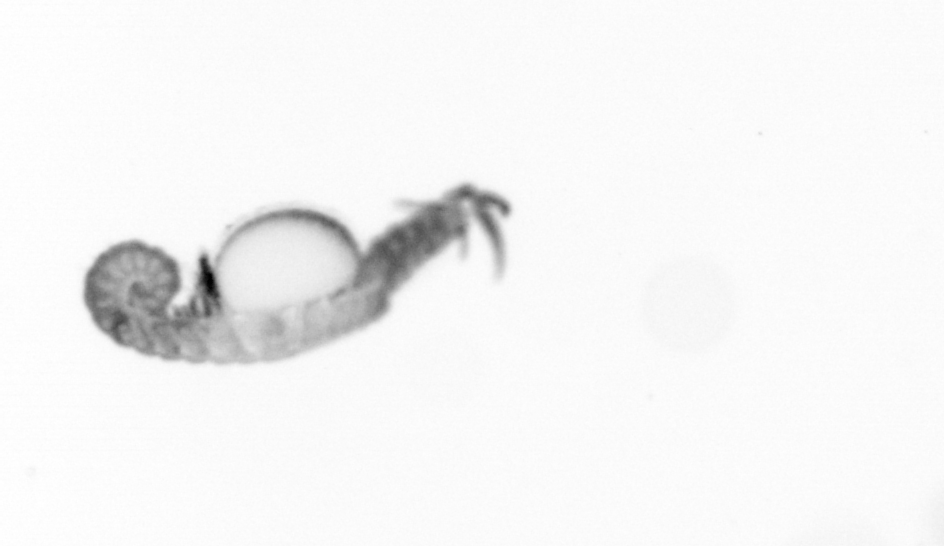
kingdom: Animalia
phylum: Annelida
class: Polychaeta
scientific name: Polychaeta
